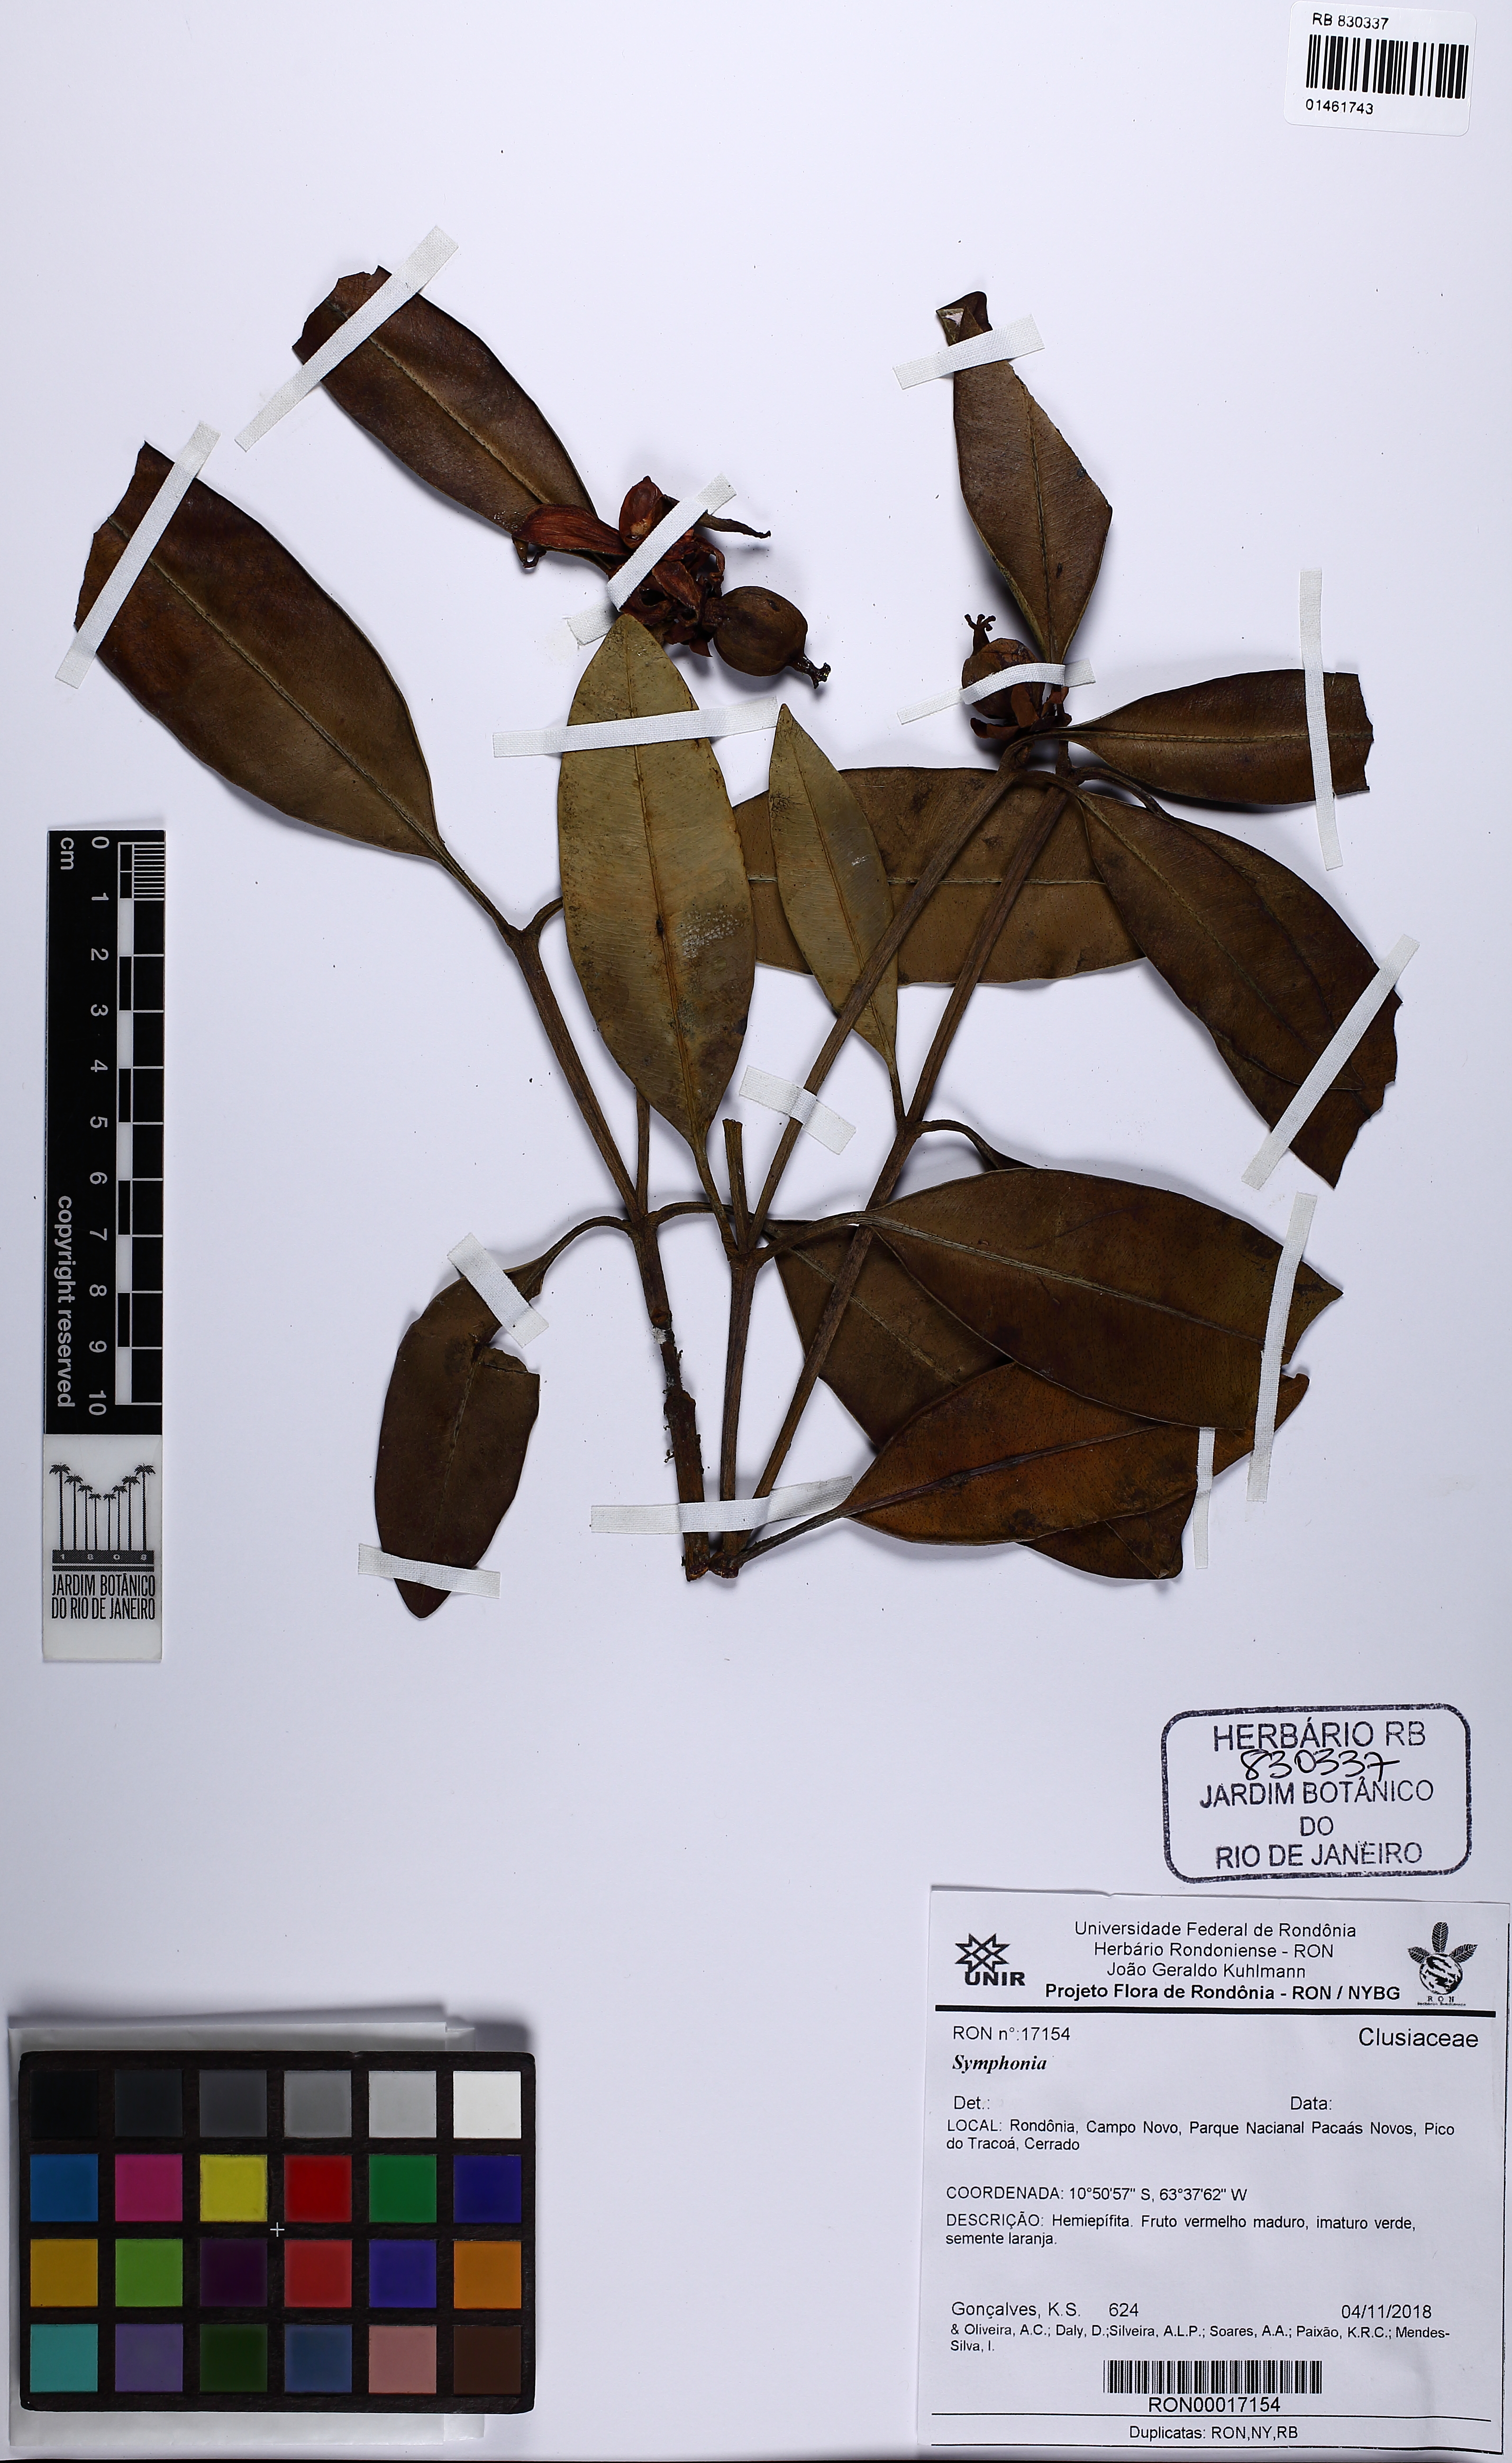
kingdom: Plantae
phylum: Tracheophyta
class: Magnoliopsida
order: Malpighiales
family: Clusiaceae
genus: Symphonia
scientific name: Symphonia
